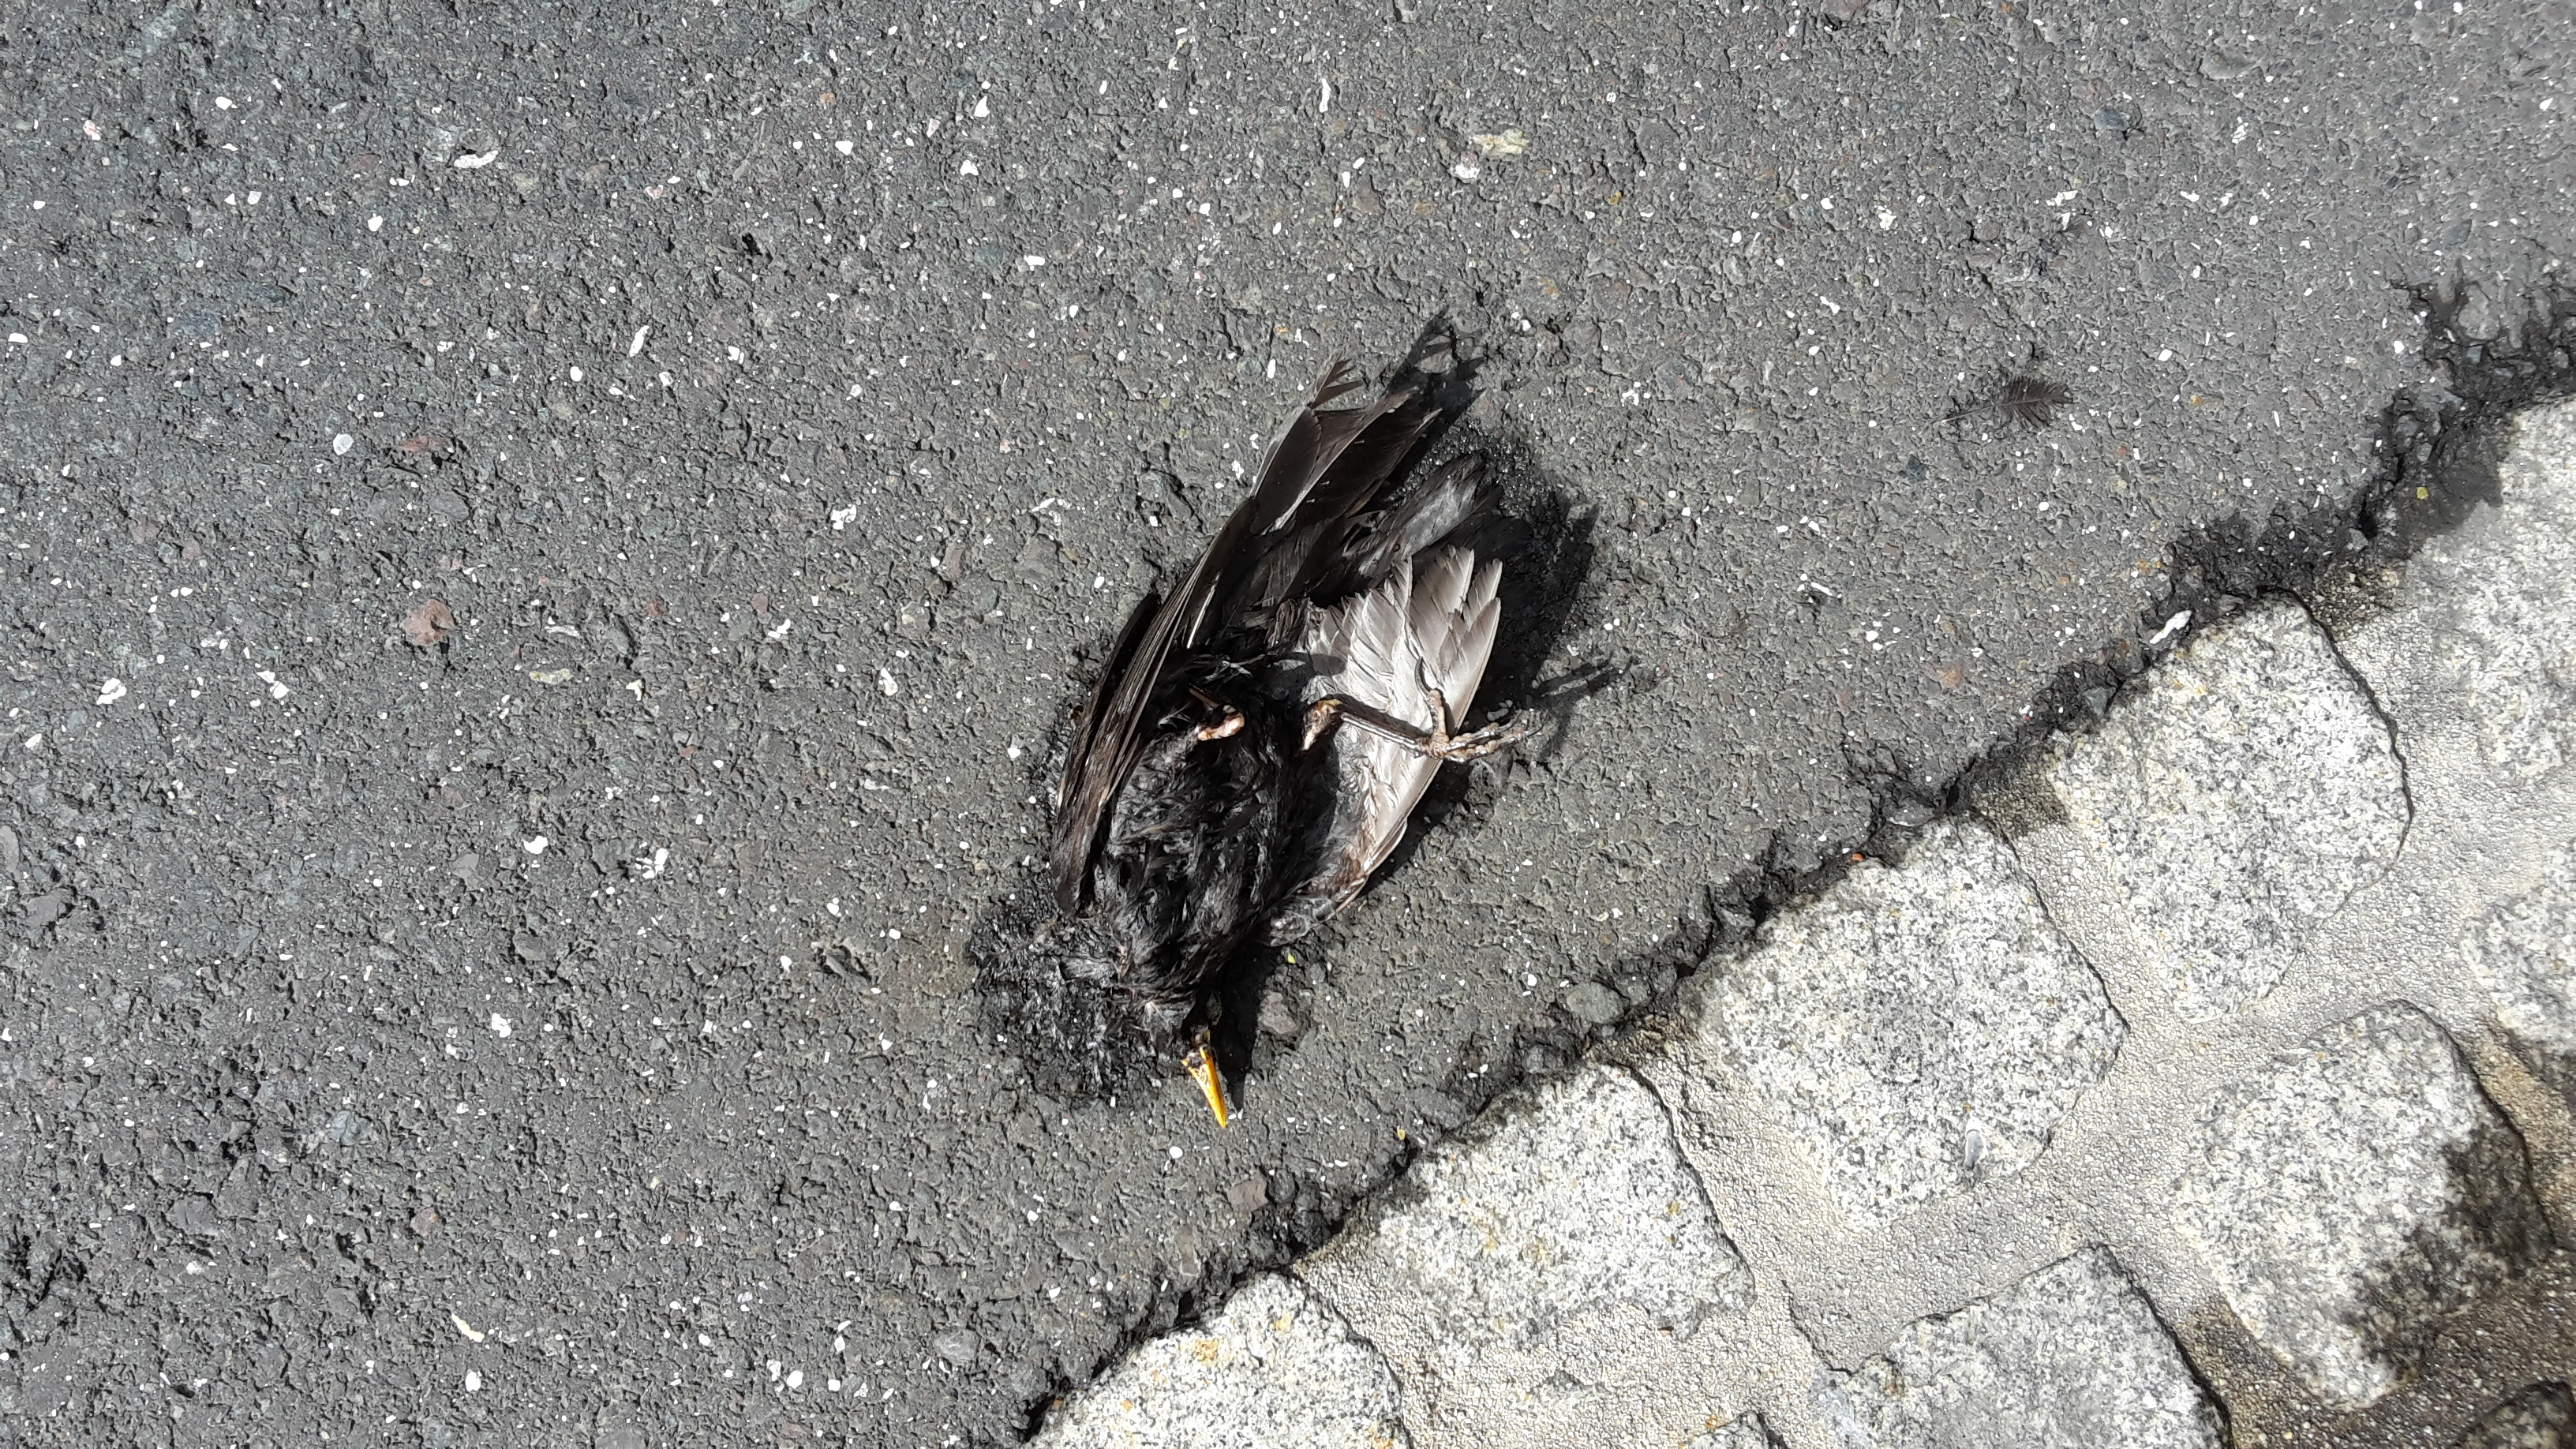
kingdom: Animalia
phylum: Chordata
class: Aves
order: Passeriformes
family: Turdidae
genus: Turdus
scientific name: Turdus merula
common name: Common blackbird
